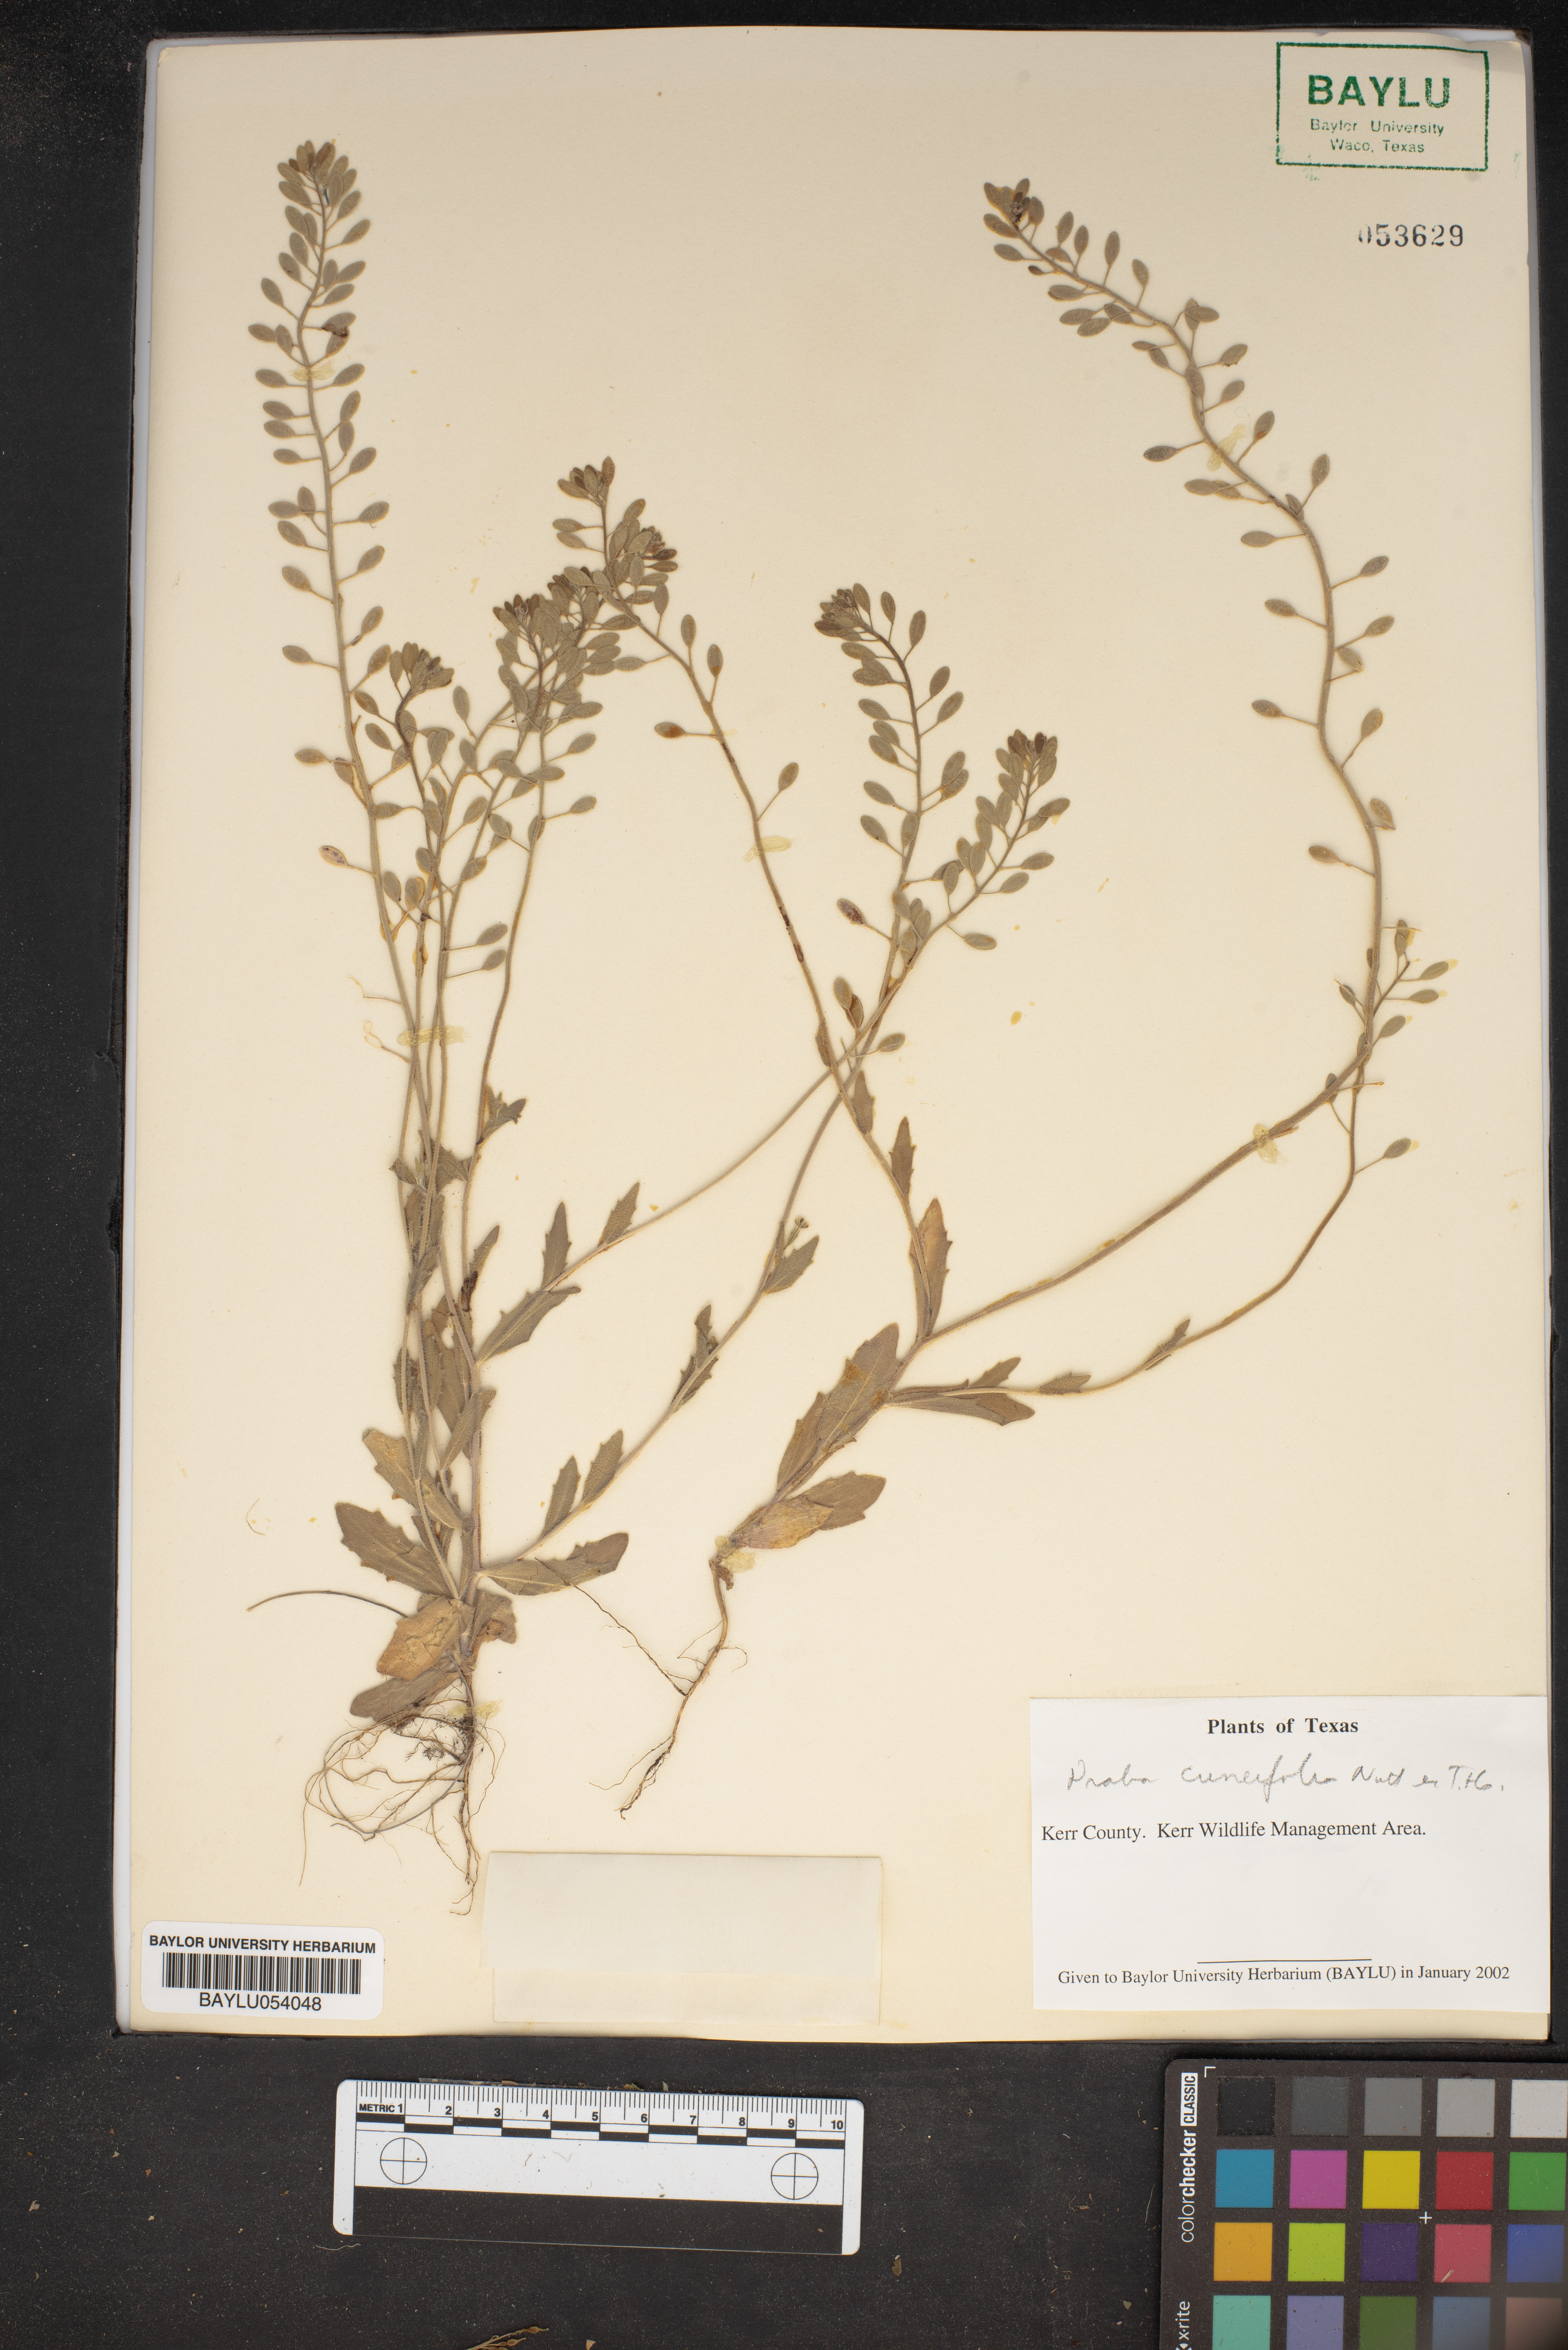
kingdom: Plantae
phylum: Tracheophyta
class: Magnoliopsida
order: Brassicales
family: Brassicaceae
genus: Tomostima
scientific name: Tomostima cuneifolia
